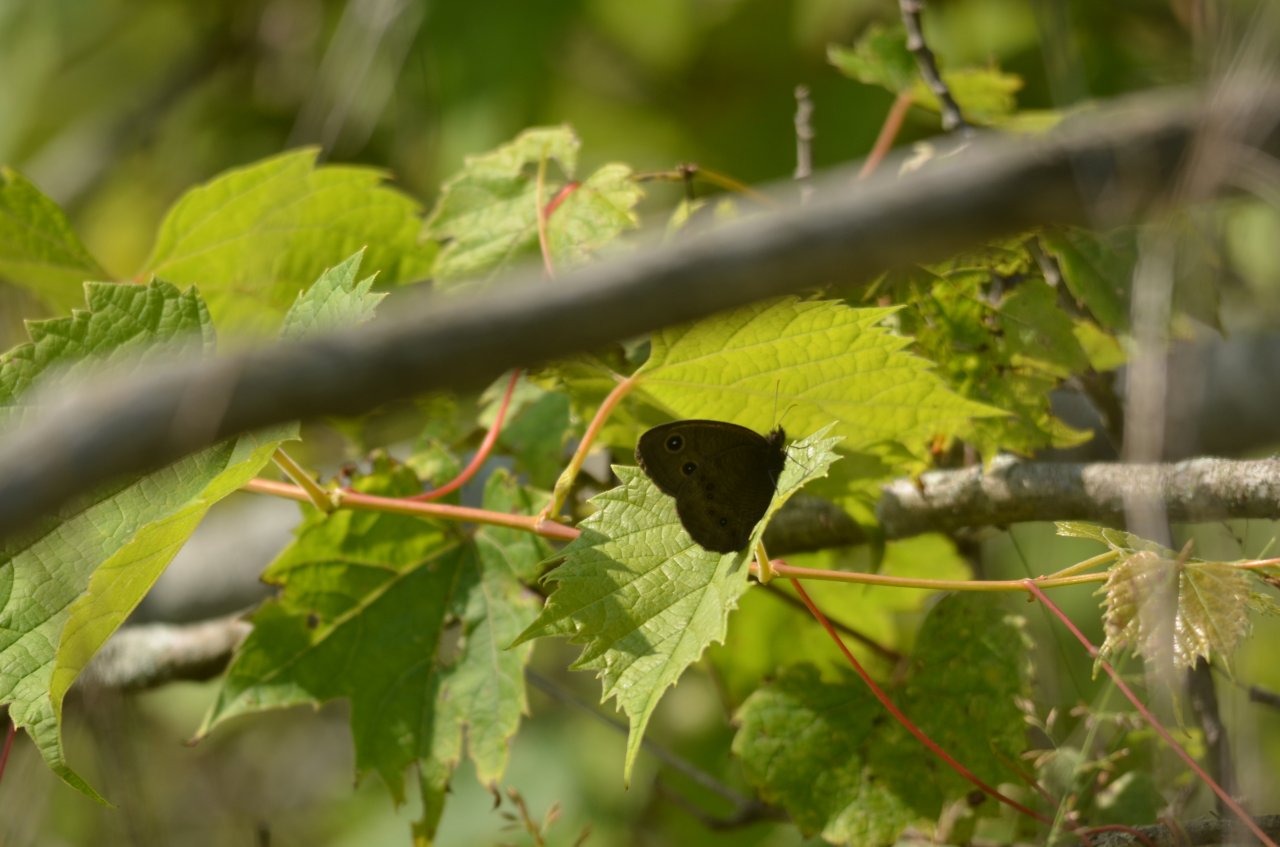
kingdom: Animalia
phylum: Arthropoda
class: Insecta
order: Lepidoptera
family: Nymphalidae
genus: Cercyonis
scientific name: Cercyonis pegala
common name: Common Wood-Nymph
